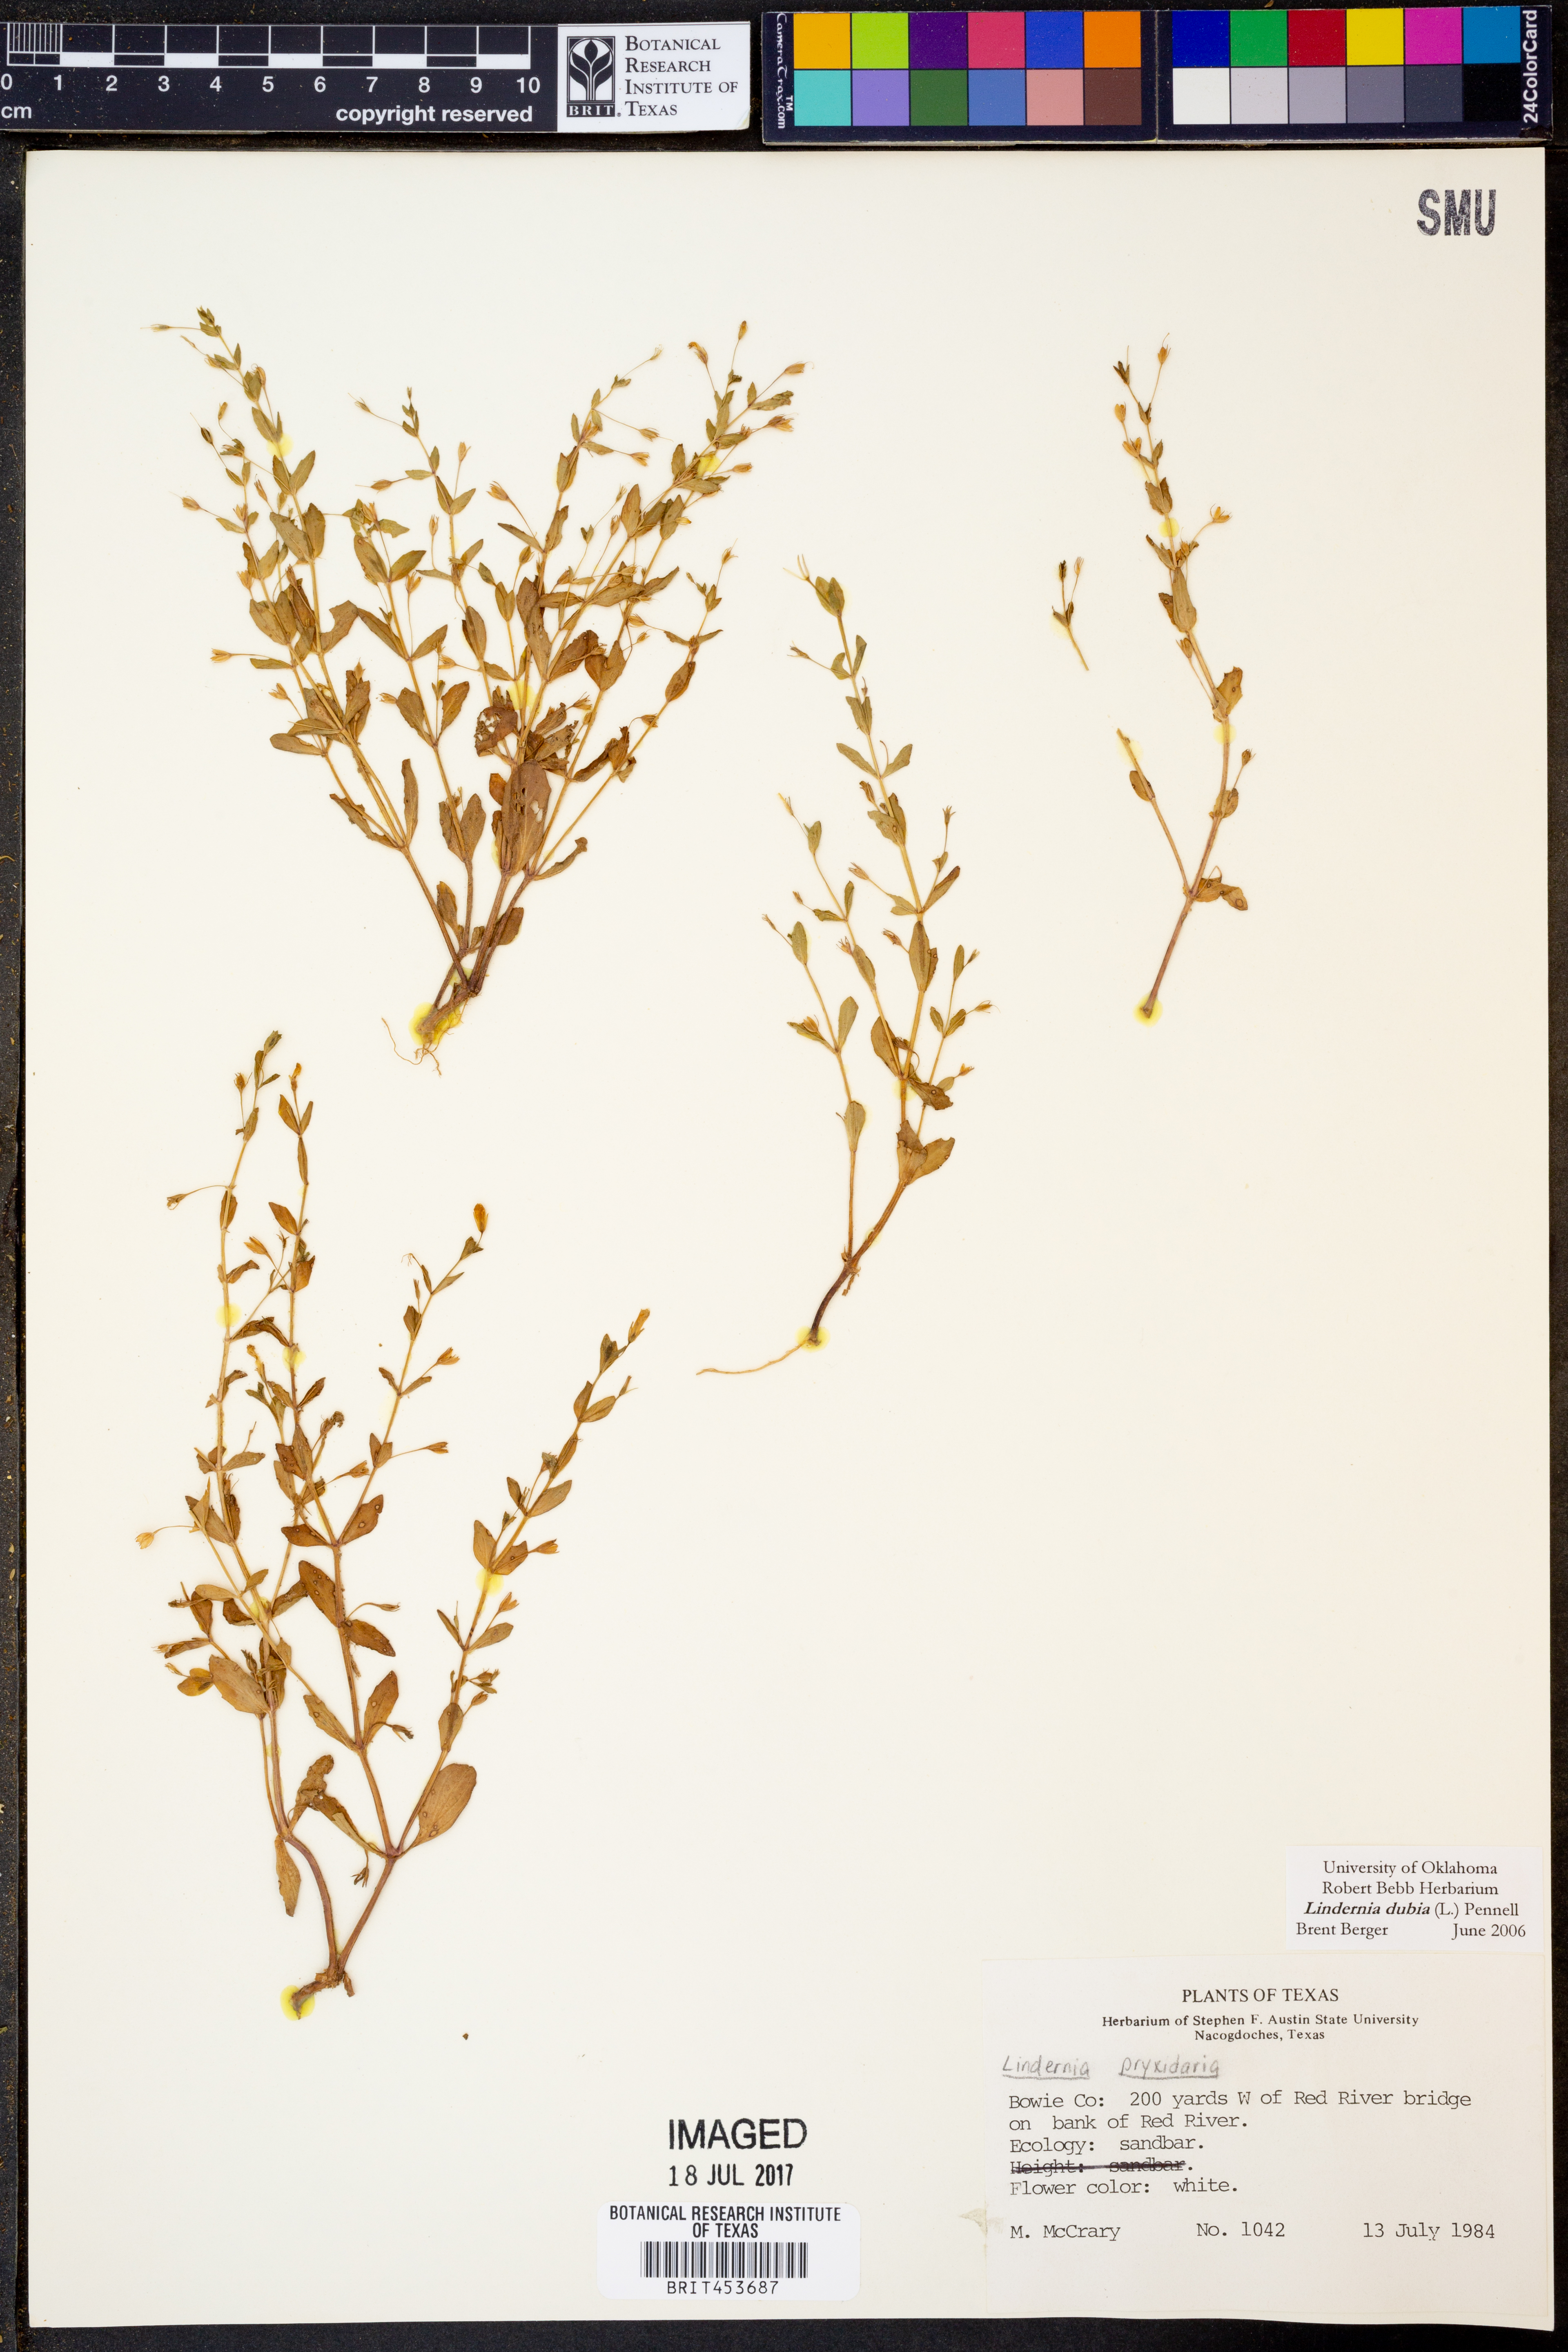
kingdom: Plantae
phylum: Tracheophyta
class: Magnoliopsida
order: Lamiales
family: Linderniaceae
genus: Lindernia
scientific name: Lindernia dubia
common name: Annual false pimpernel
